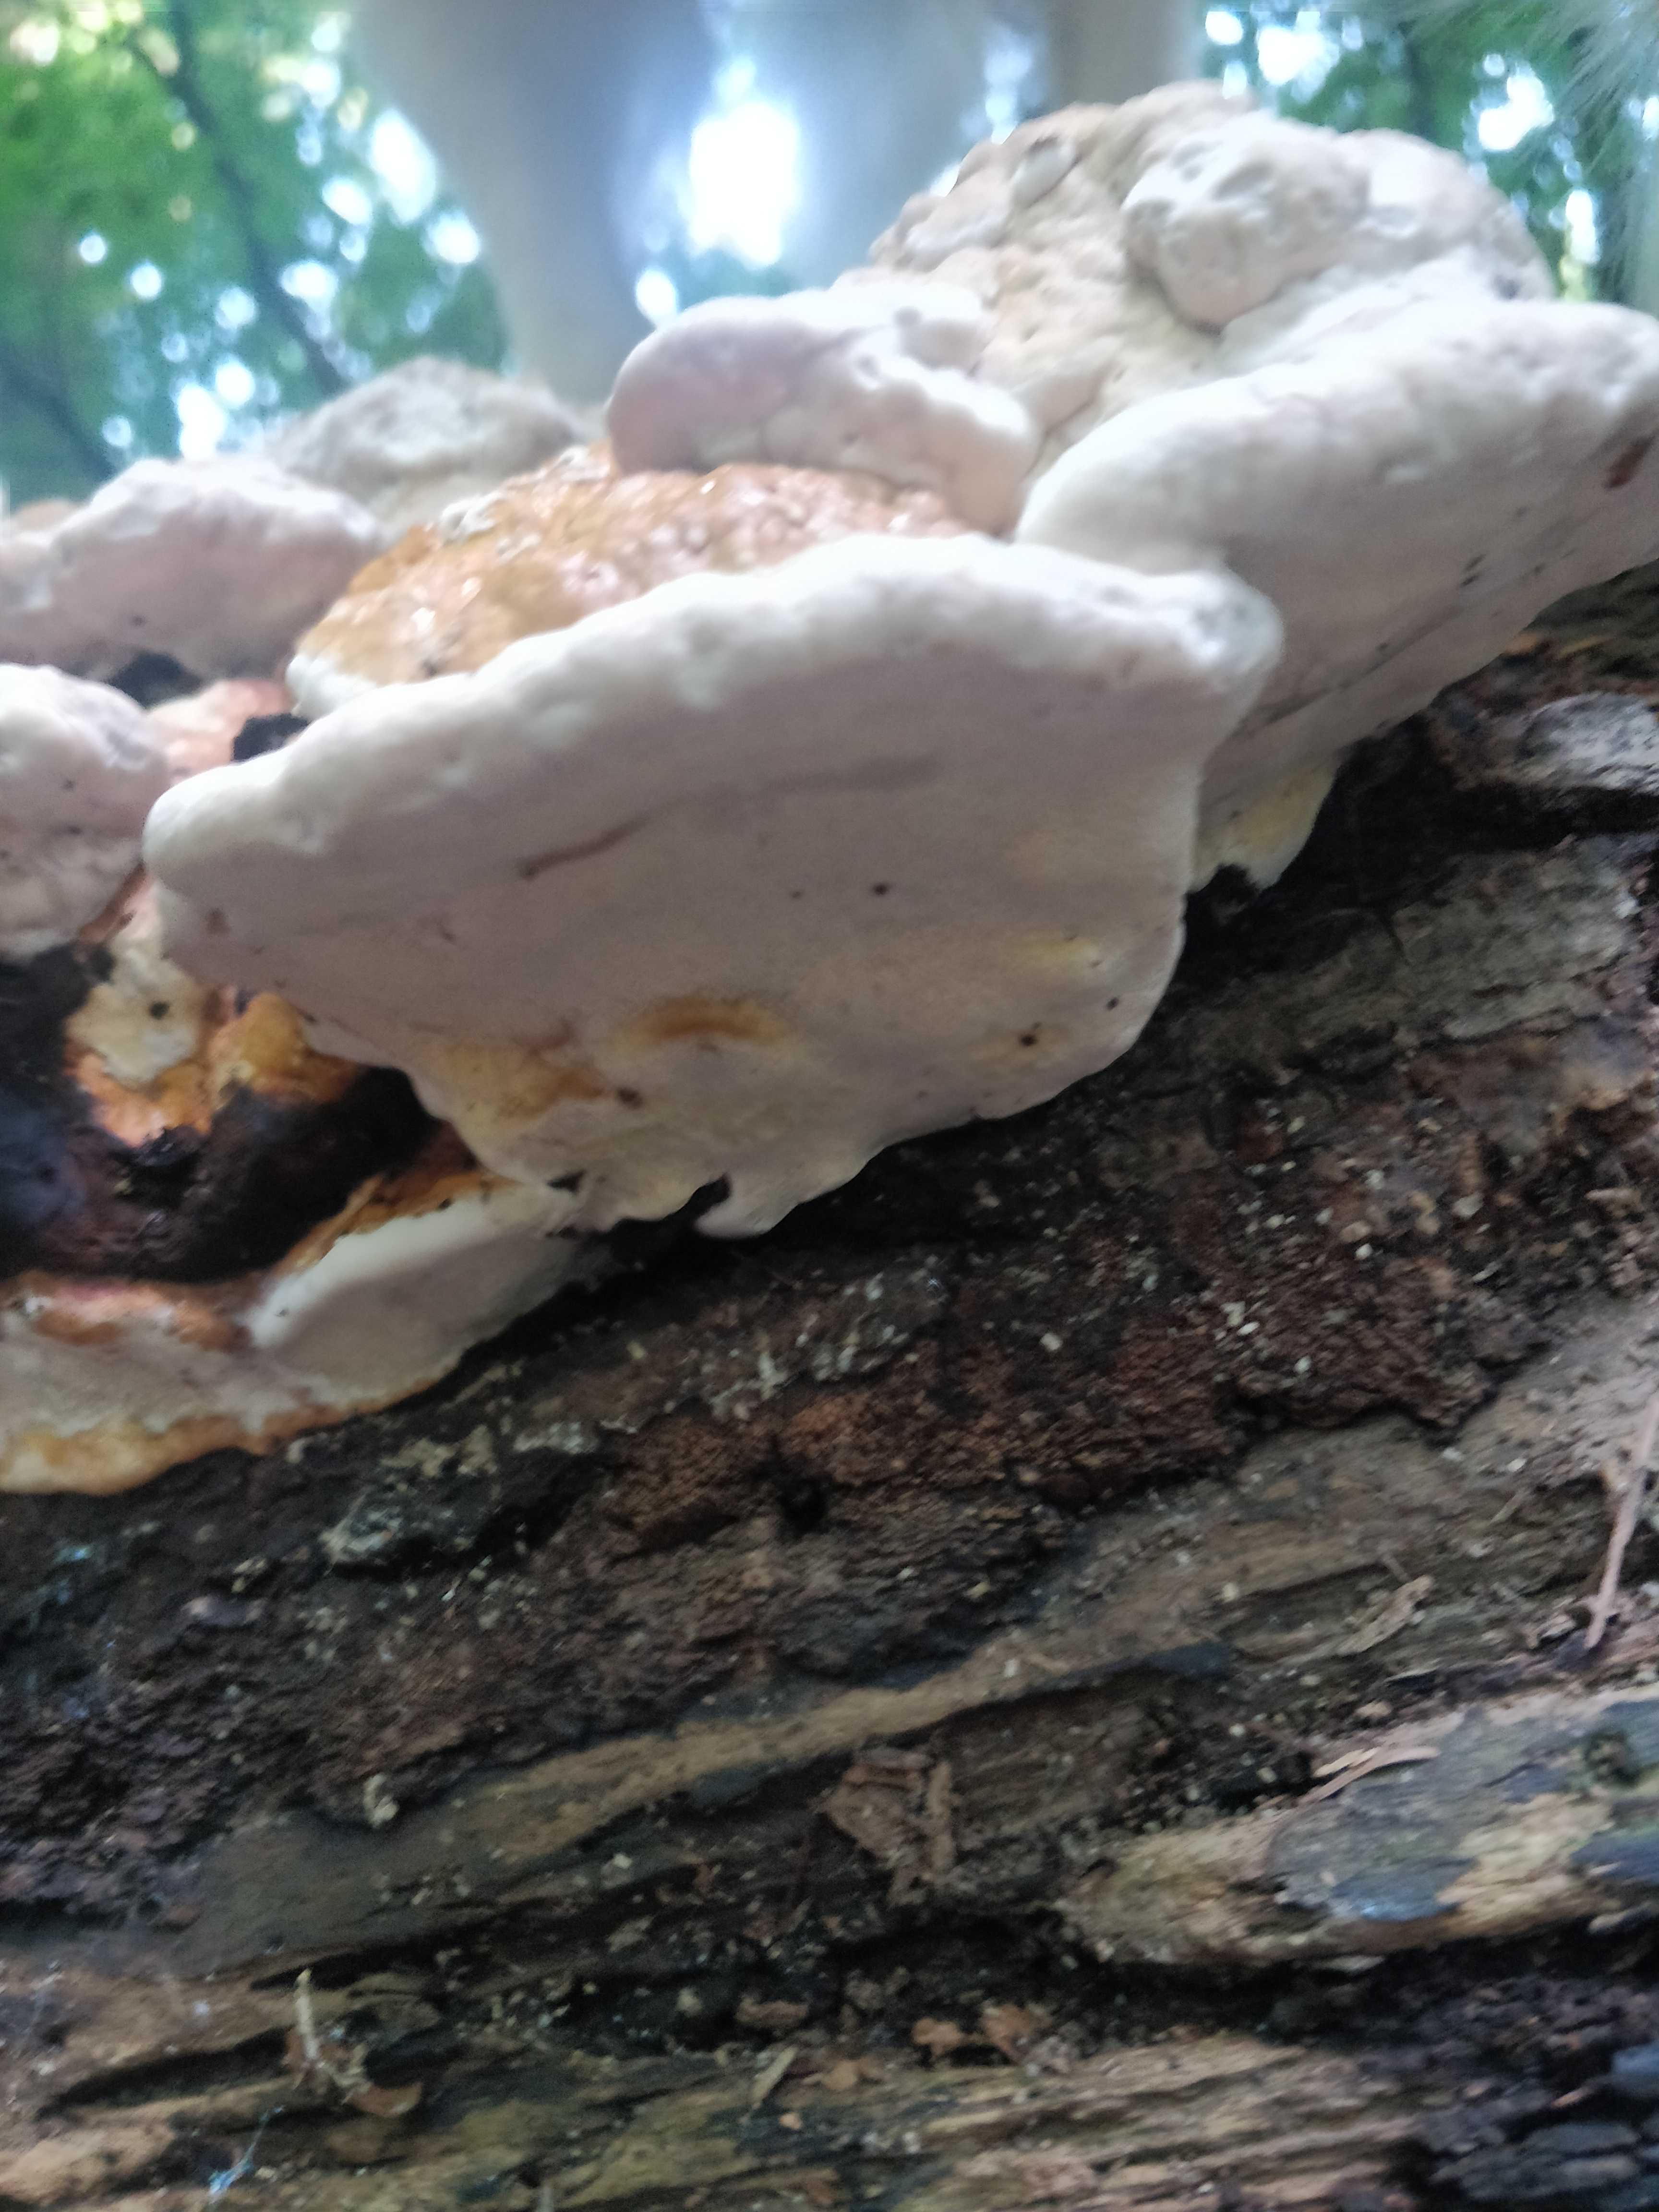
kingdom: Fungi
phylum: Basidiomycota
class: Agaricomycetes
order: Polyporales
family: Fomitopsidaceae
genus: Fomitopsis
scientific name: Fomitopsis pinicola
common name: randbæltet hovporesvamp
